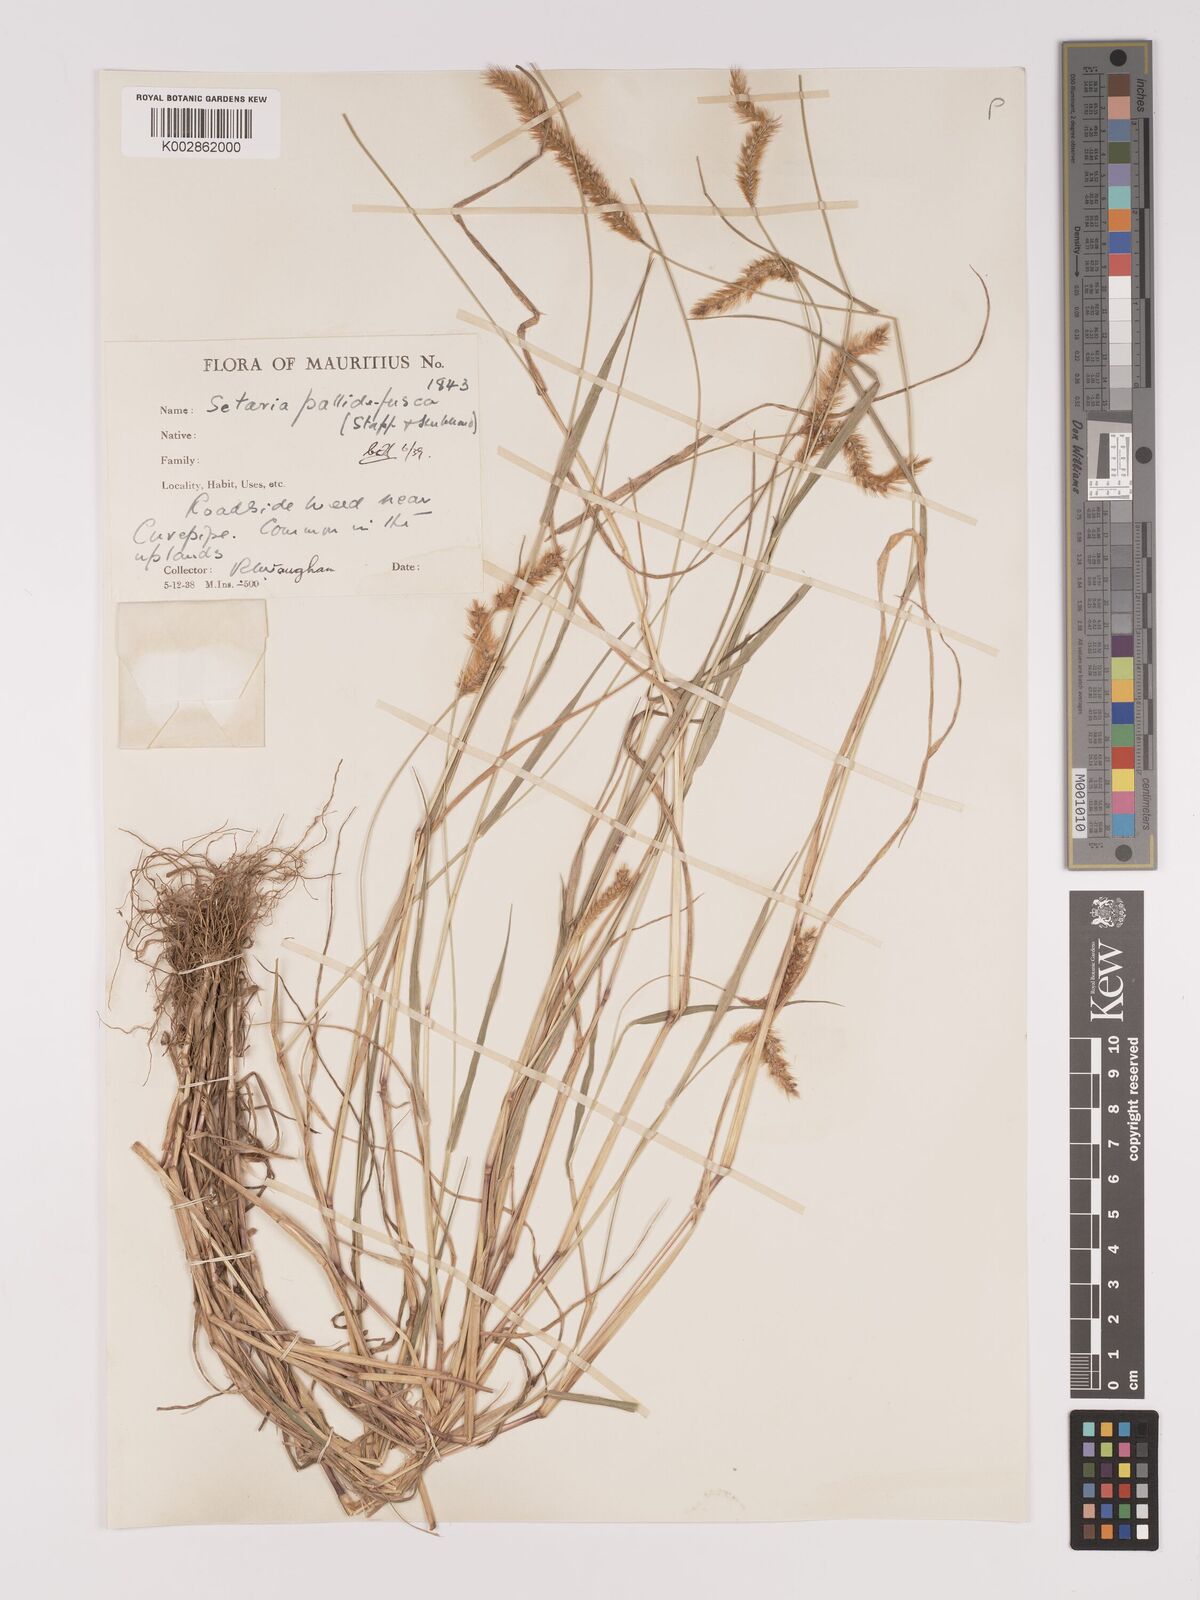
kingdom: Plantae
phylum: Tracheophyta
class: Liliopsida
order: Poales
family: Poaceae
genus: Setaria
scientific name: Setaria pumila
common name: Yellow bristle-grass
